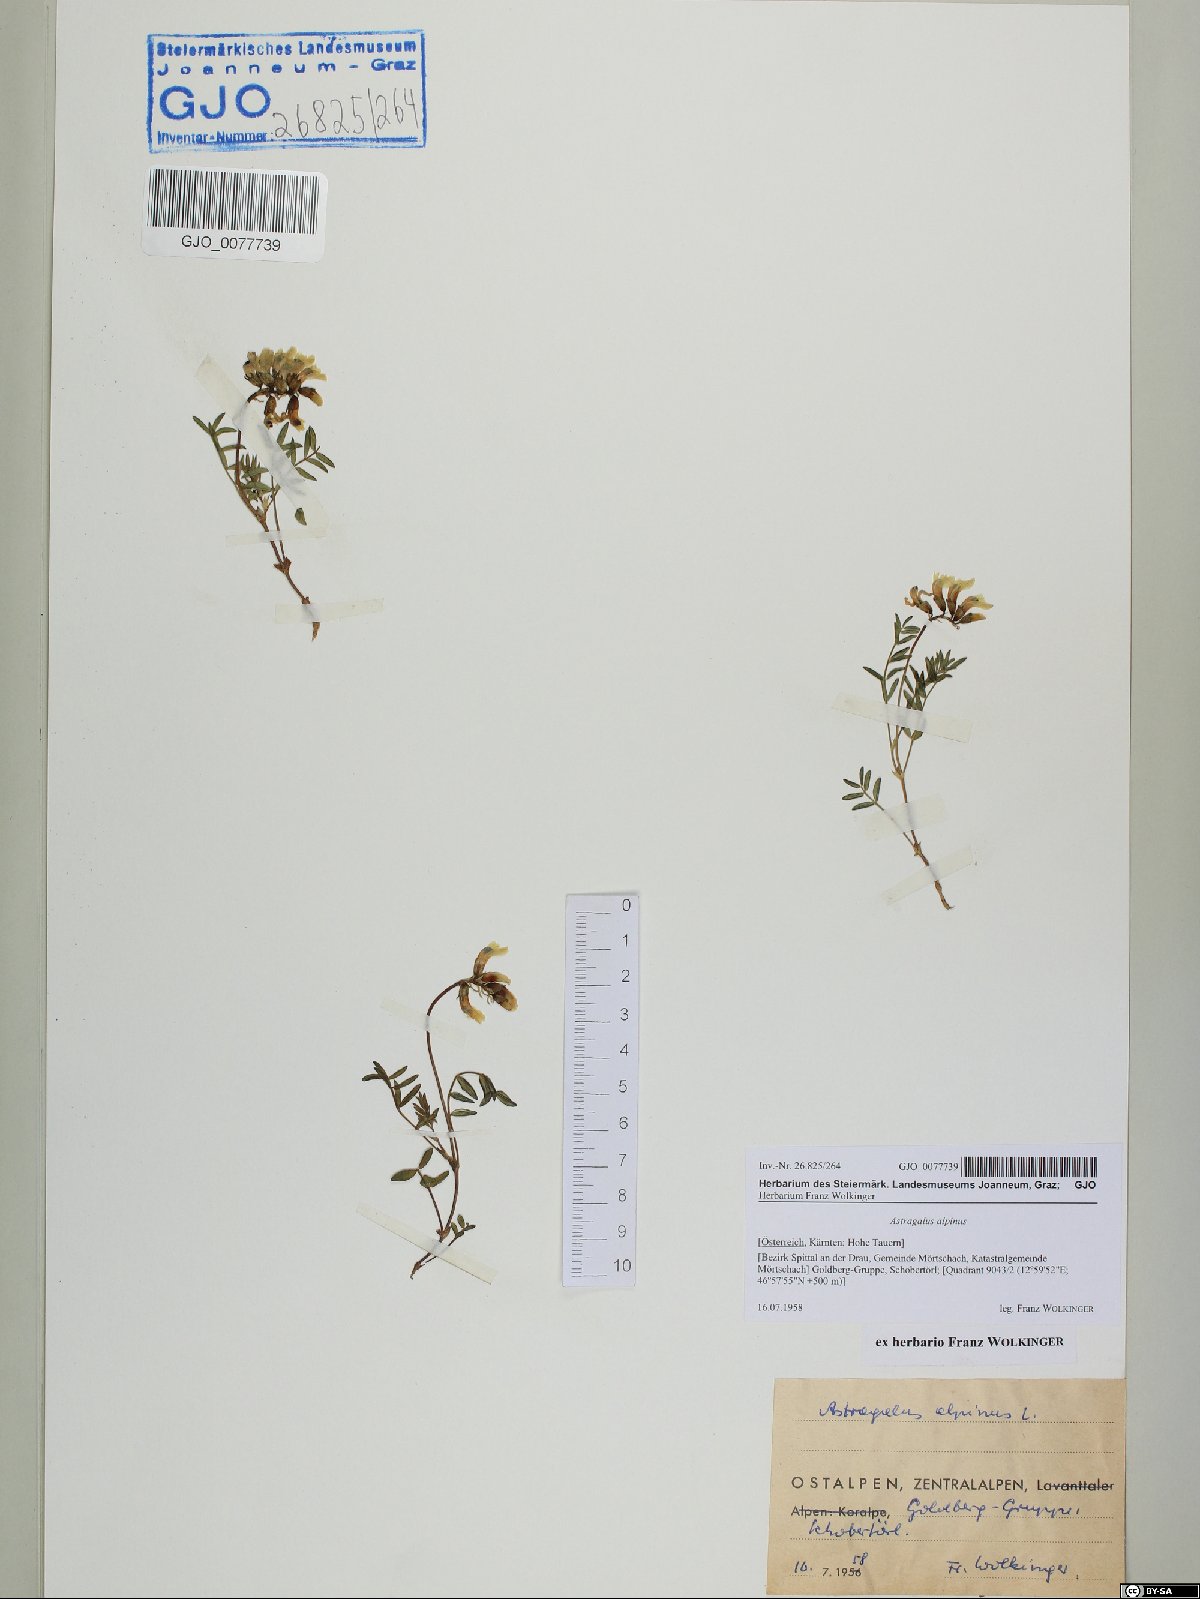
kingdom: Plantae
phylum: Tracheophyta
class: Magnoliopsida
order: Fabales
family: Fabaceae
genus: Astragalus
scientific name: Astragalus alpinus
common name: Alpine milk-vetch
